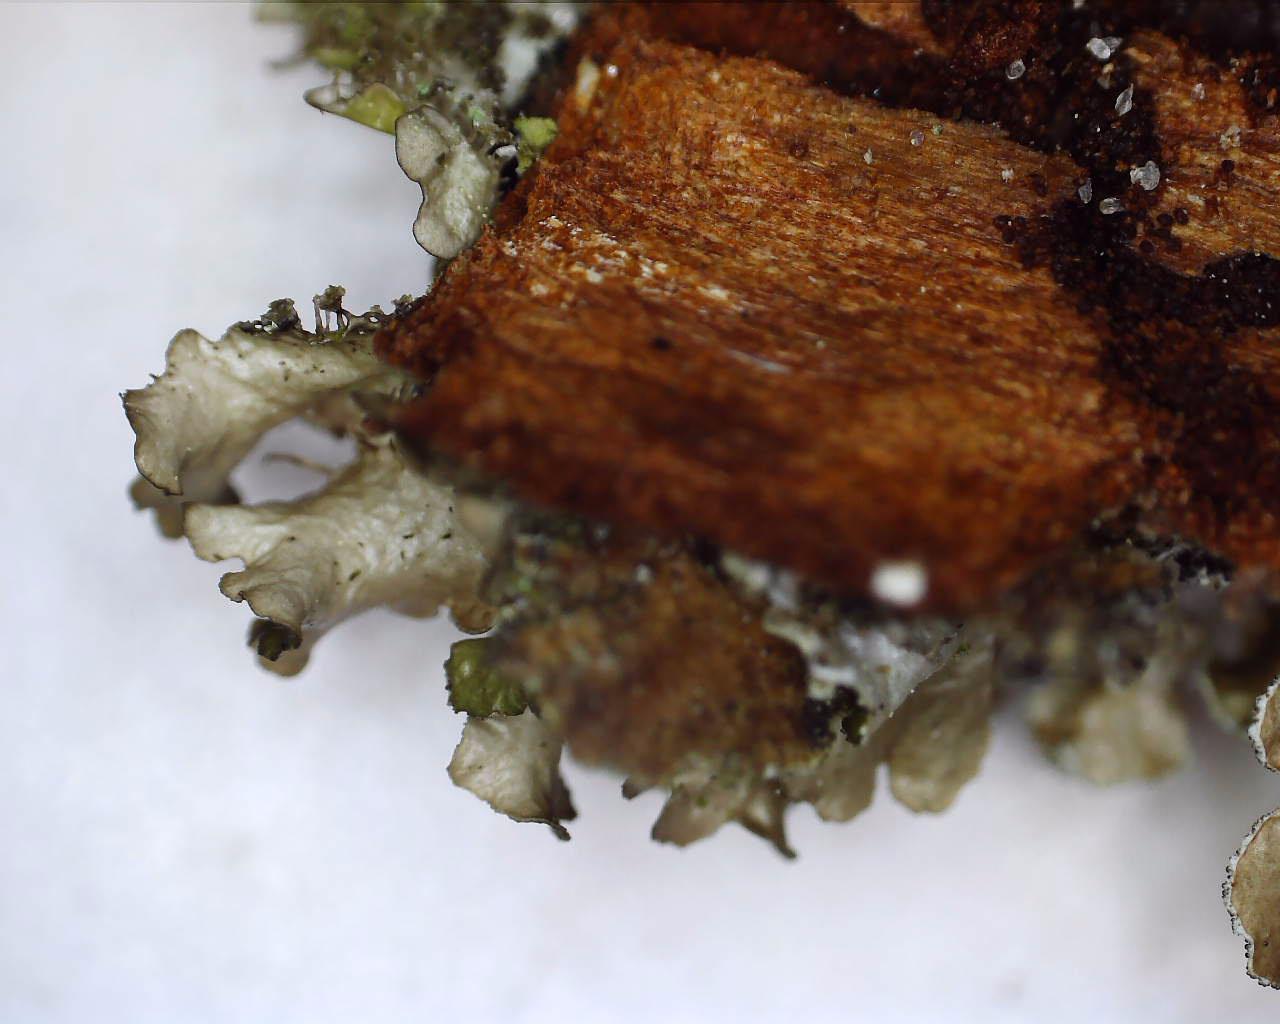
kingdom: Fungi
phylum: Ascomycota
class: Lecanoromycetes
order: Lecanorales
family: Parmeliaceae
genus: Nephromopsis
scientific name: Nephromopsis chlorophylla
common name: olivenbrun kruslav
